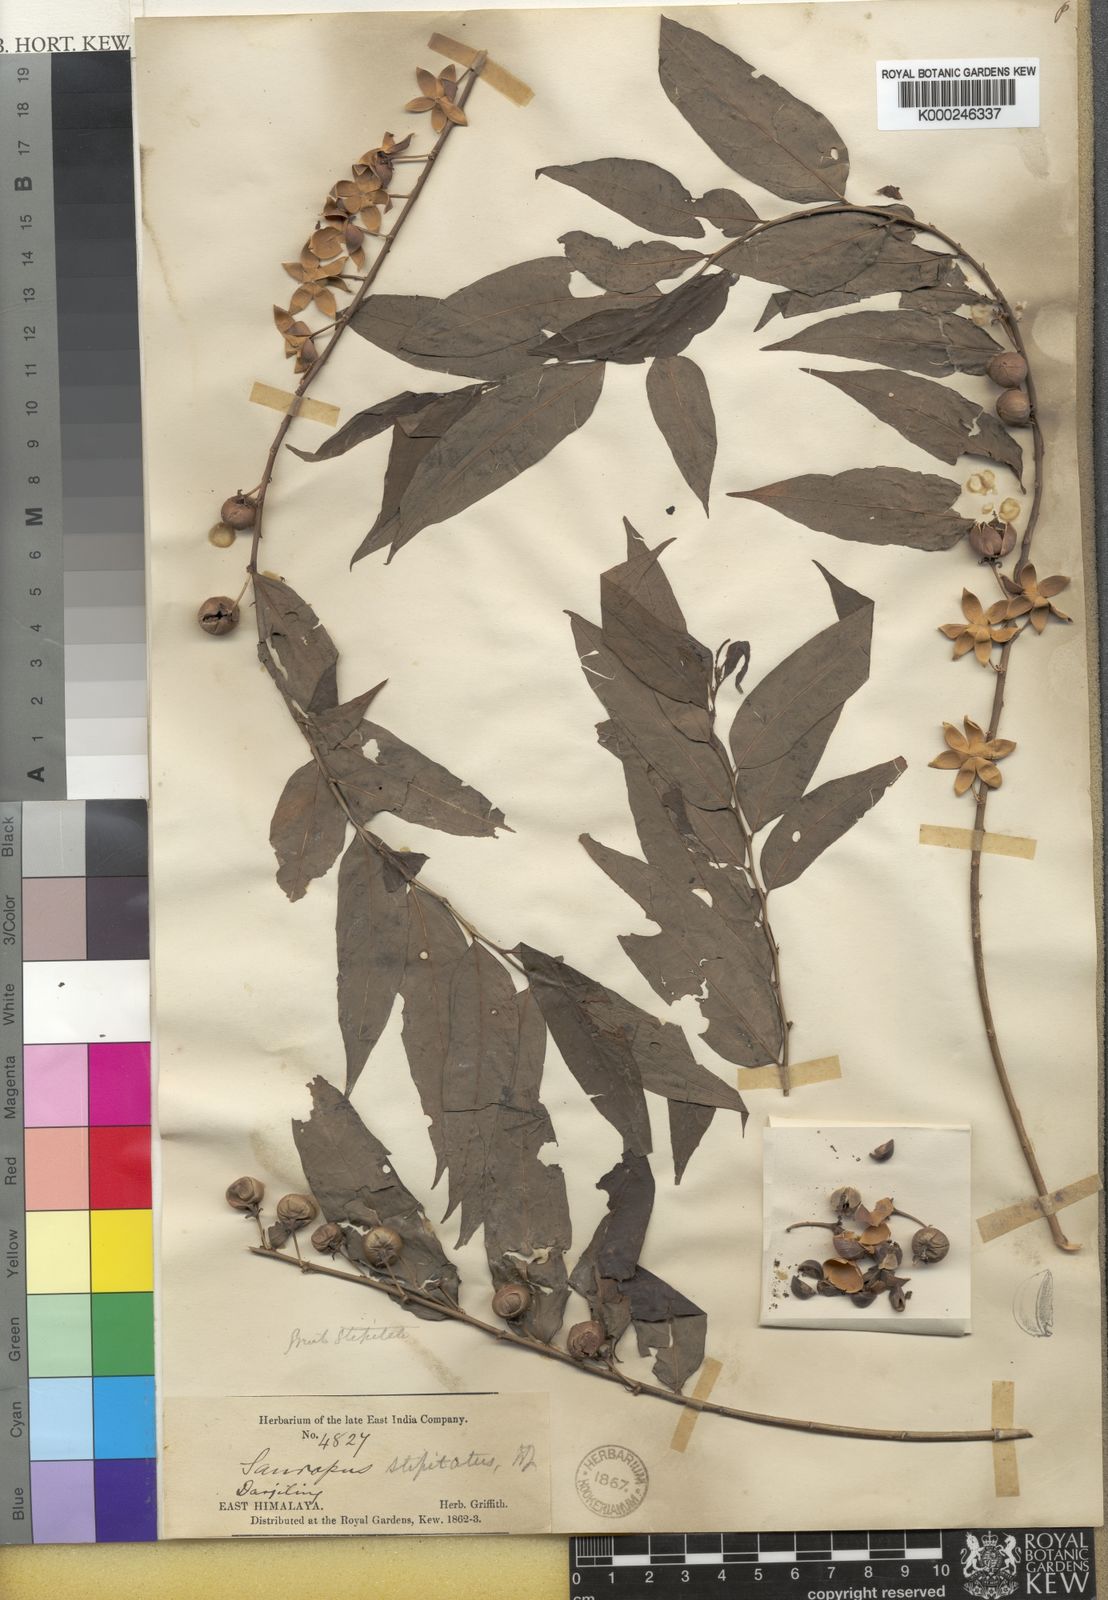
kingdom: Plantae
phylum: Tracheophyta
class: Magnoliopsida
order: Malpighiales
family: Phyllanthaceae
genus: Breynia
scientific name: Breynia gynophora
